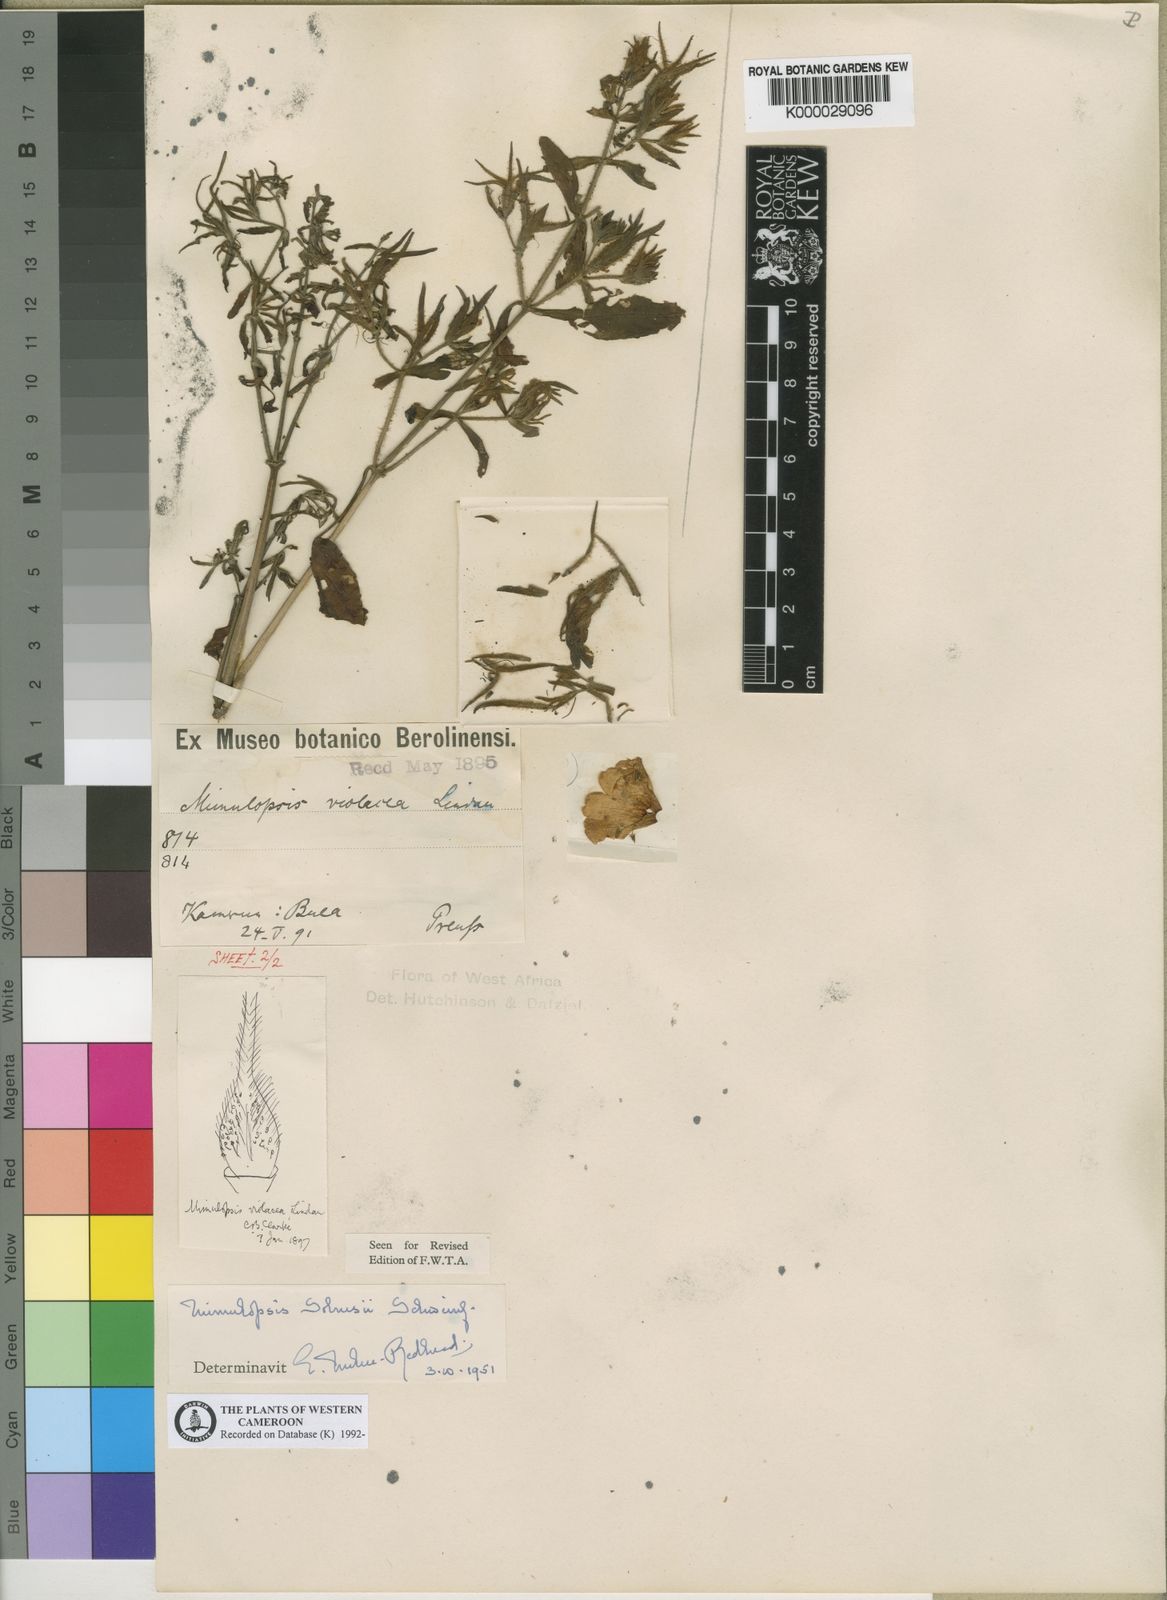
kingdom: Plantae
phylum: Tracheophyta
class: Magnoliopsida
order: Lamiales
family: Acanthaceae
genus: Mimulopsis
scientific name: Mimulopsis solmsii
